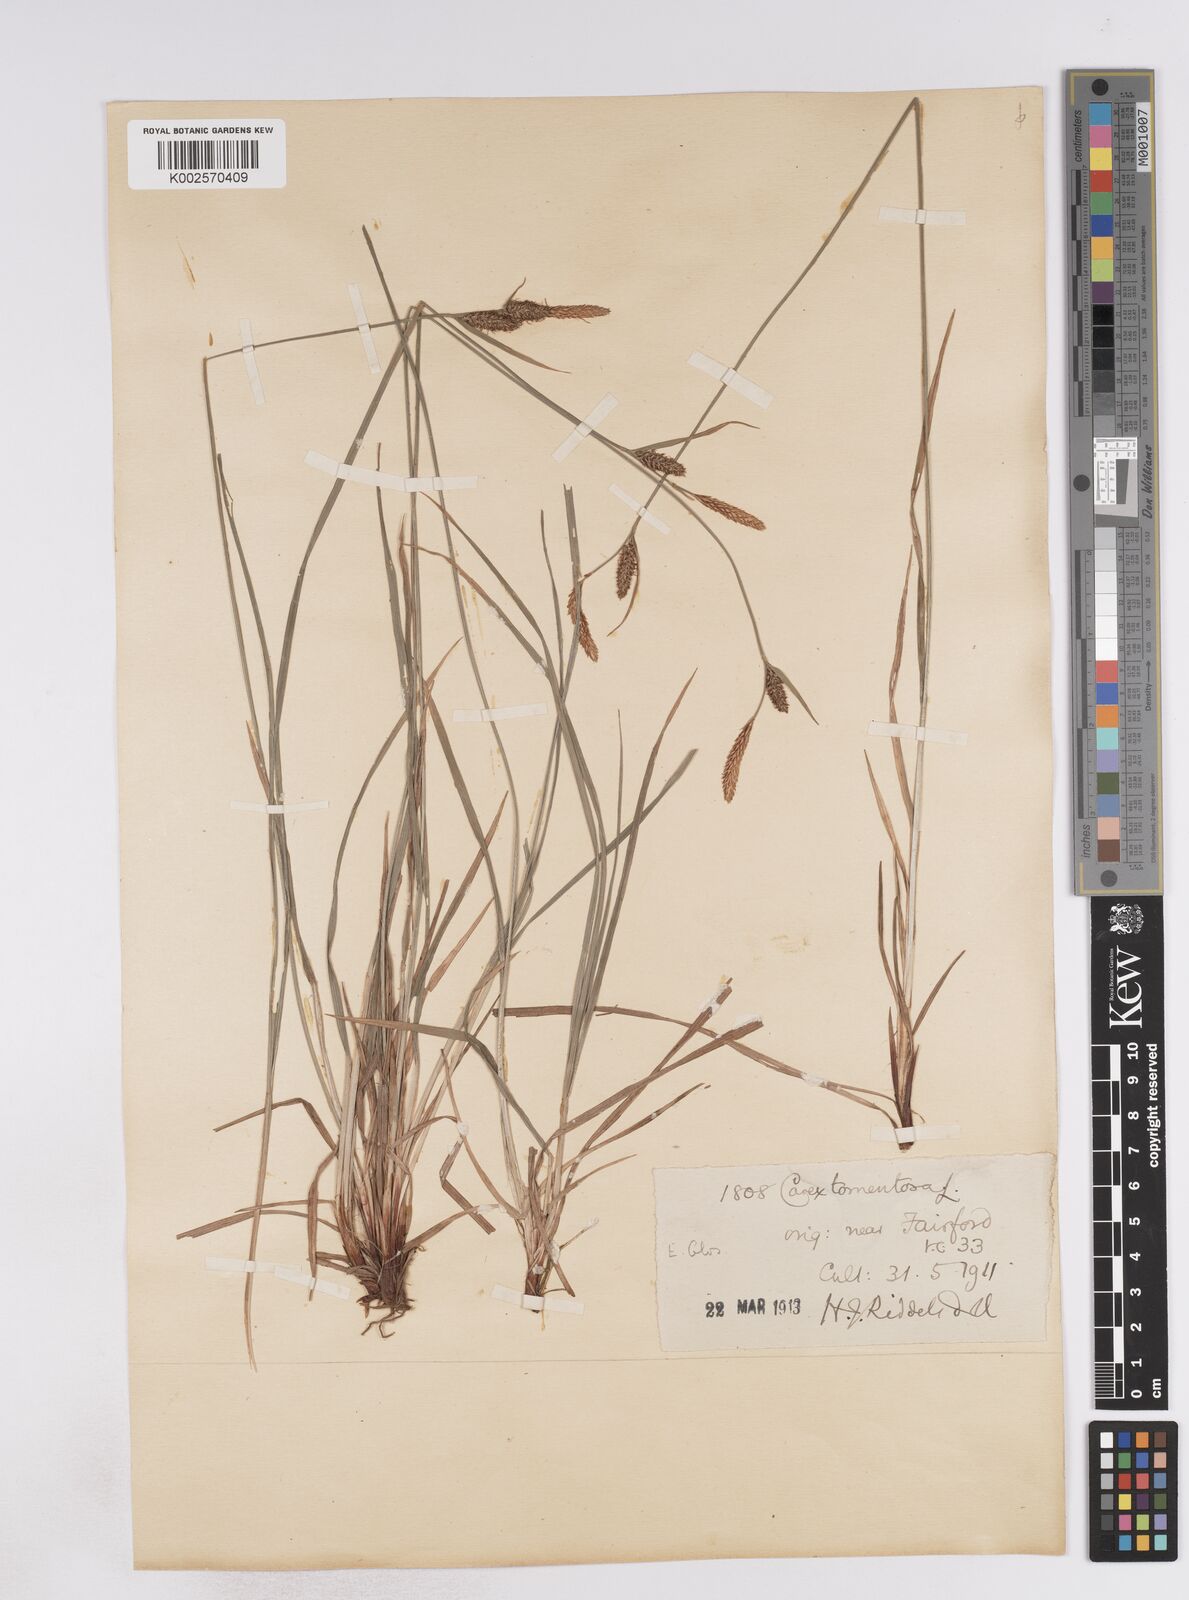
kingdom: Plantae
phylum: Tracheophyta
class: Liliopsida
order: Poales
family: Cyperaceae
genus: Carex
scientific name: Carex montana
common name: Soft-leaved sedge
